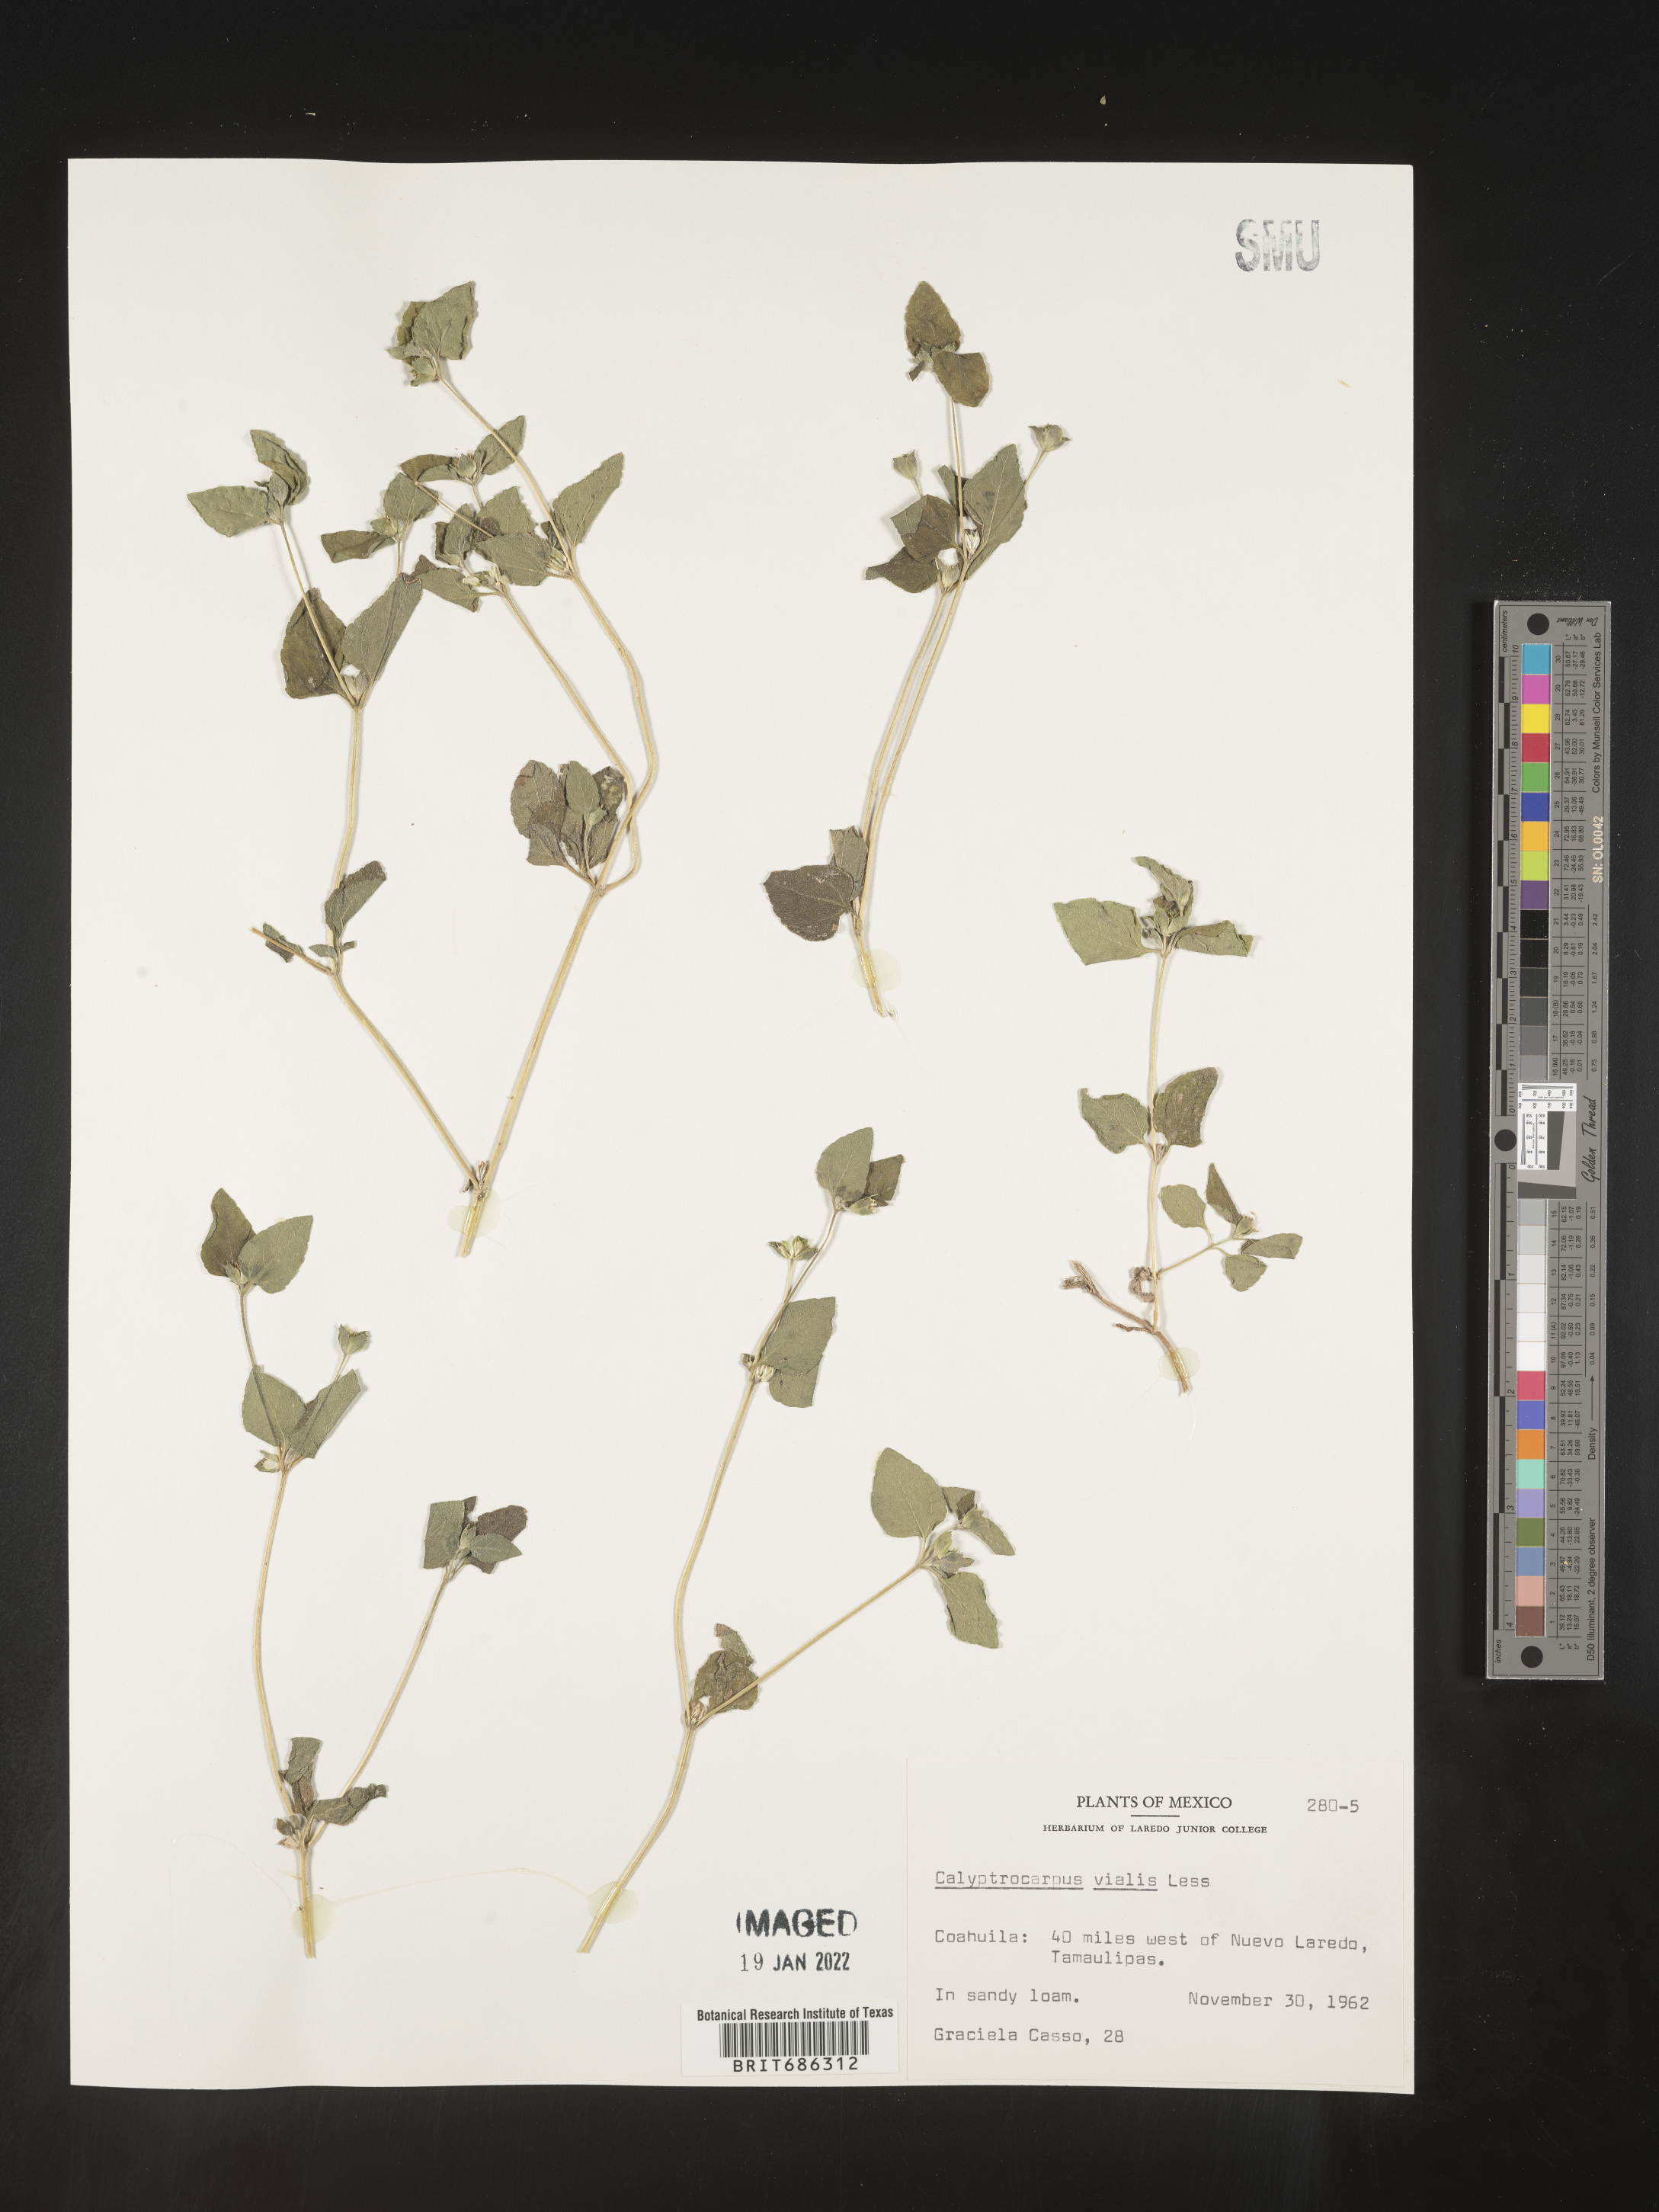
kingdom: Plantae
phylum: Tracheophyta
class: Magnoliopsida
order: Asterales
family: Asteraceae
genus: Calyptocarpus
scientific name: Calyptocarpus
